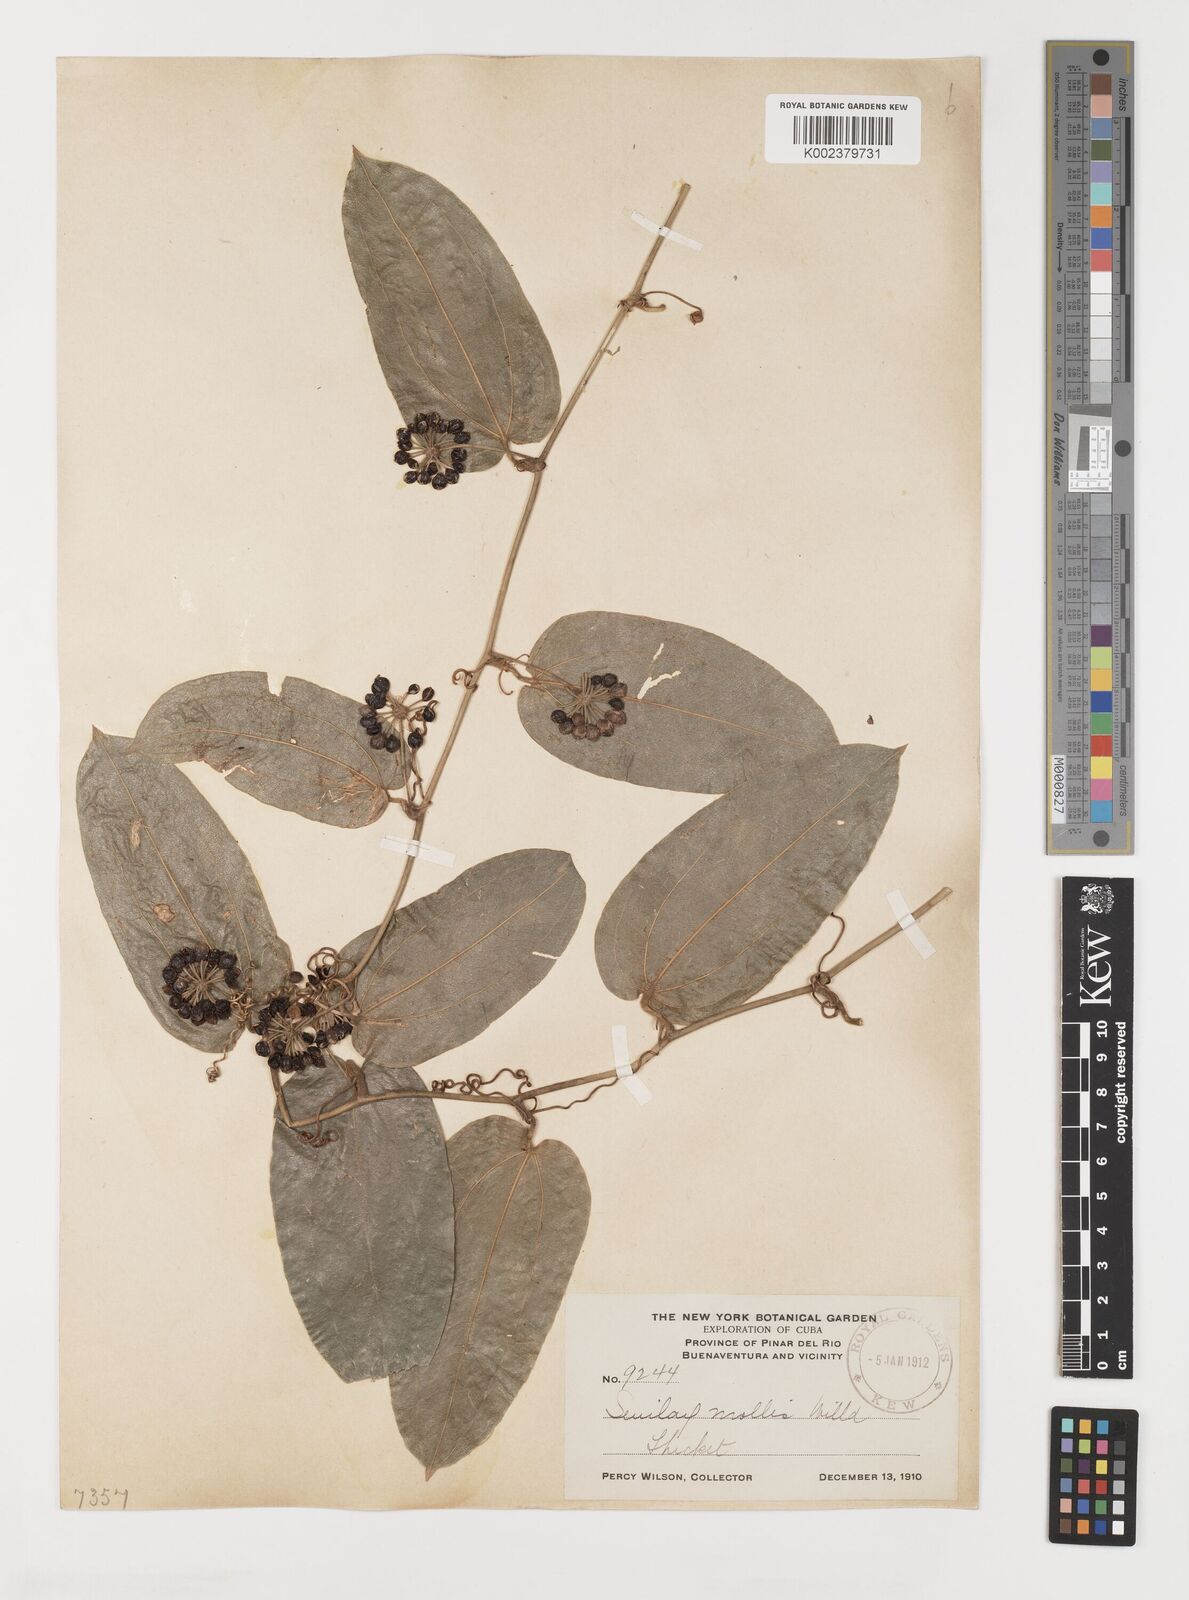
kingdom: Plantae
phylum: Tracheophyta
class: Liliopsida
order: Liliales
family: Smilacaceae
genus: Smilax
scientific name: Smilax mollis
